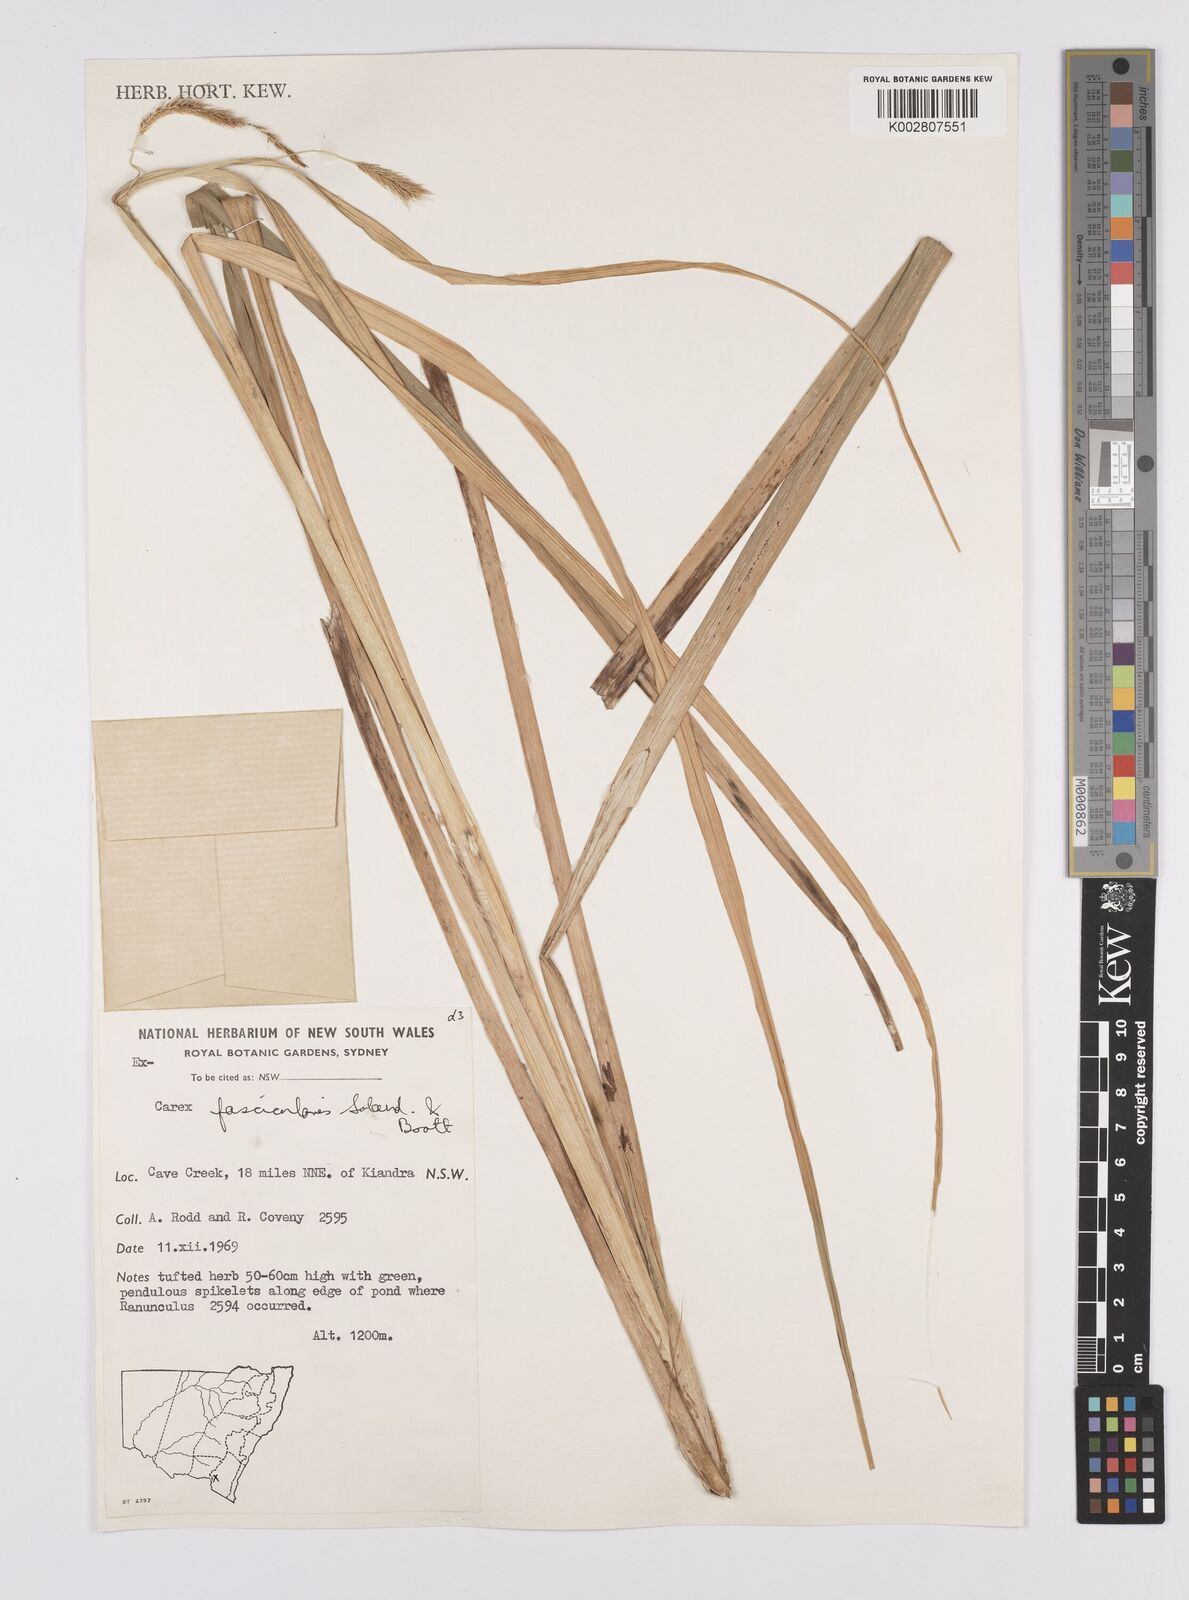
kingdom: Plantae
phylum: Tracheophyta
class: Liliopsida
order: Poales
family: Cyperaceae
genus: Carex
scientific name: Carex fascicularis
